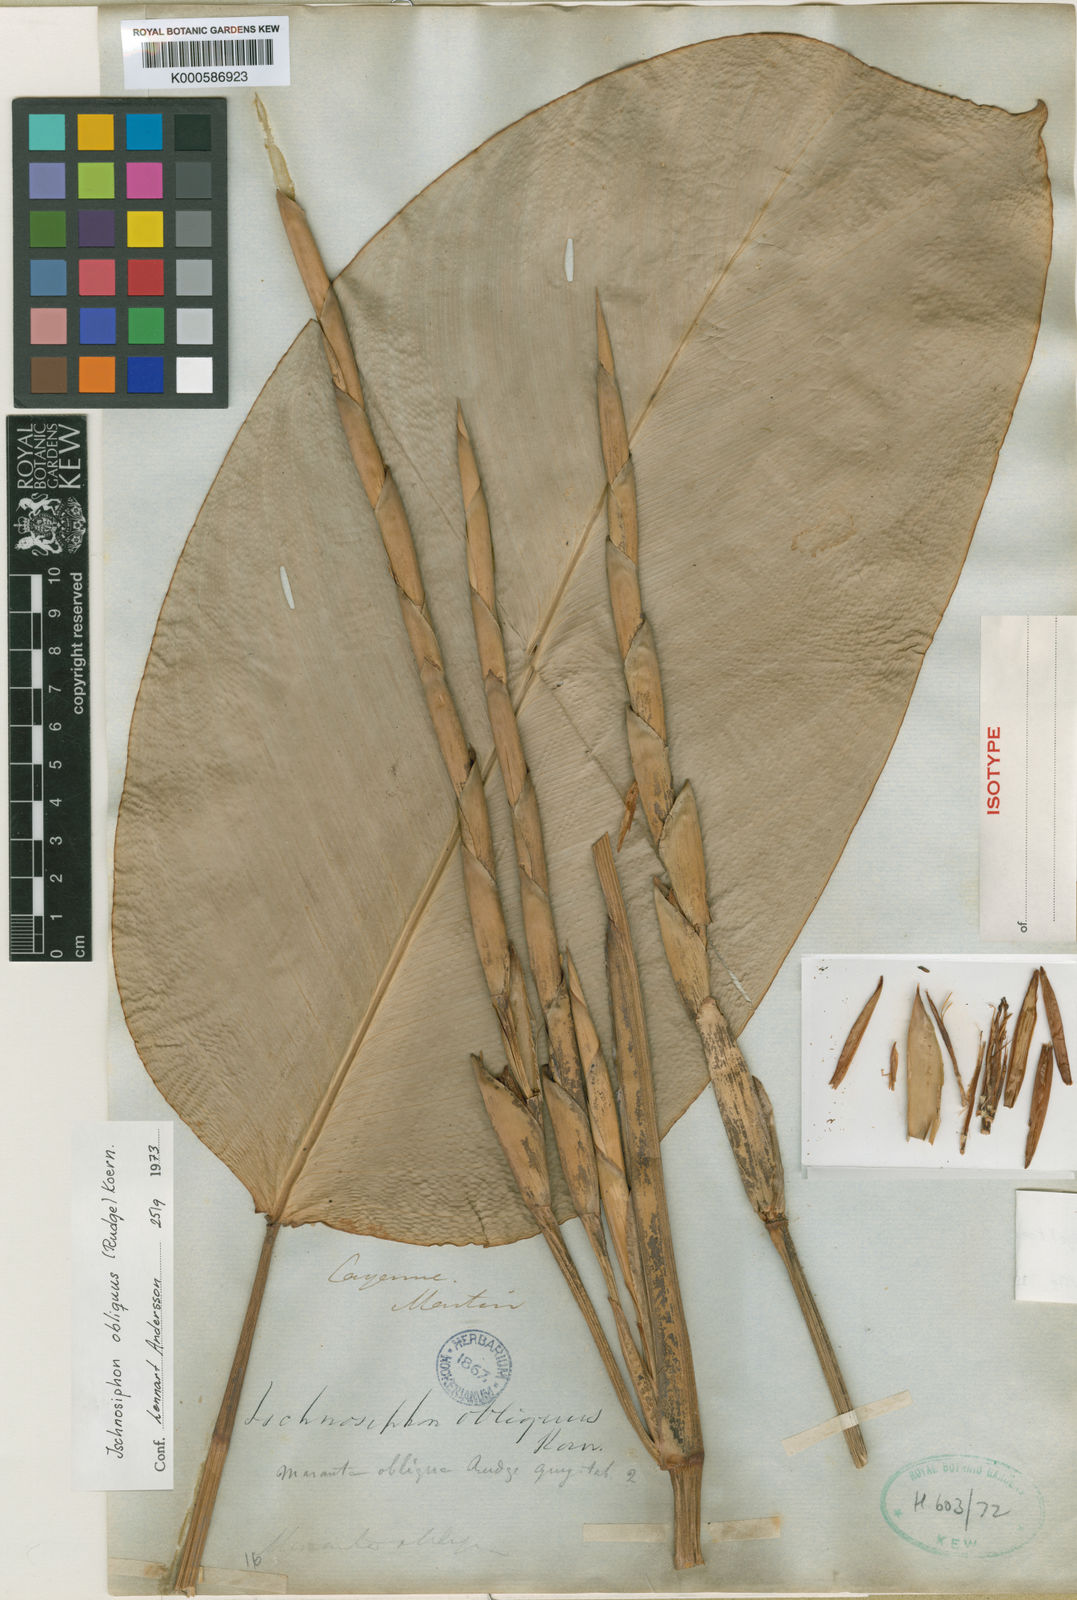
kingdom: Plantae
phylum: Tracheophyta
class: Liliopsida
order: Zingiberales
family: Marantaceae
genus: Ischnosiphon
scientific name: Ischnosiphon
